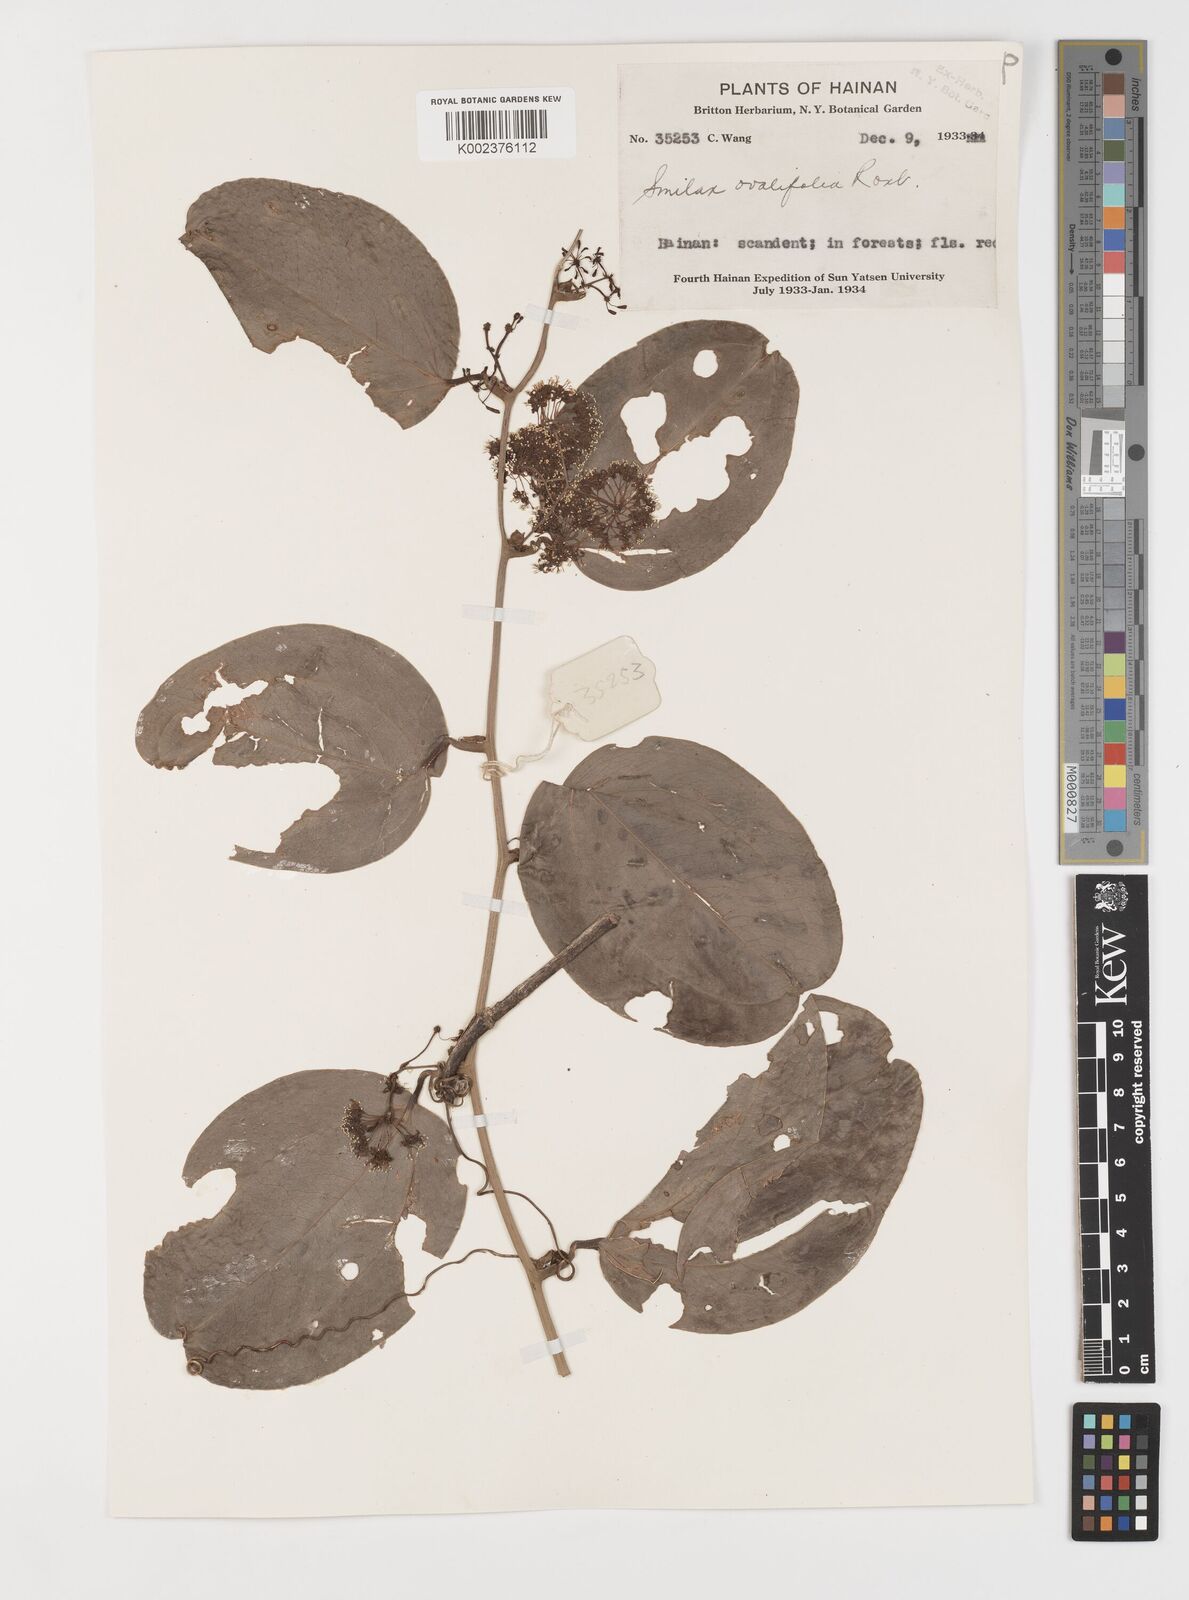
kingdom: Plantae
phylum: Tracheophyta
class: Liliopsida
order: Liliales
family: Smilacaceae
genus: Smilax
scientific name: Smilax ovalifolia
